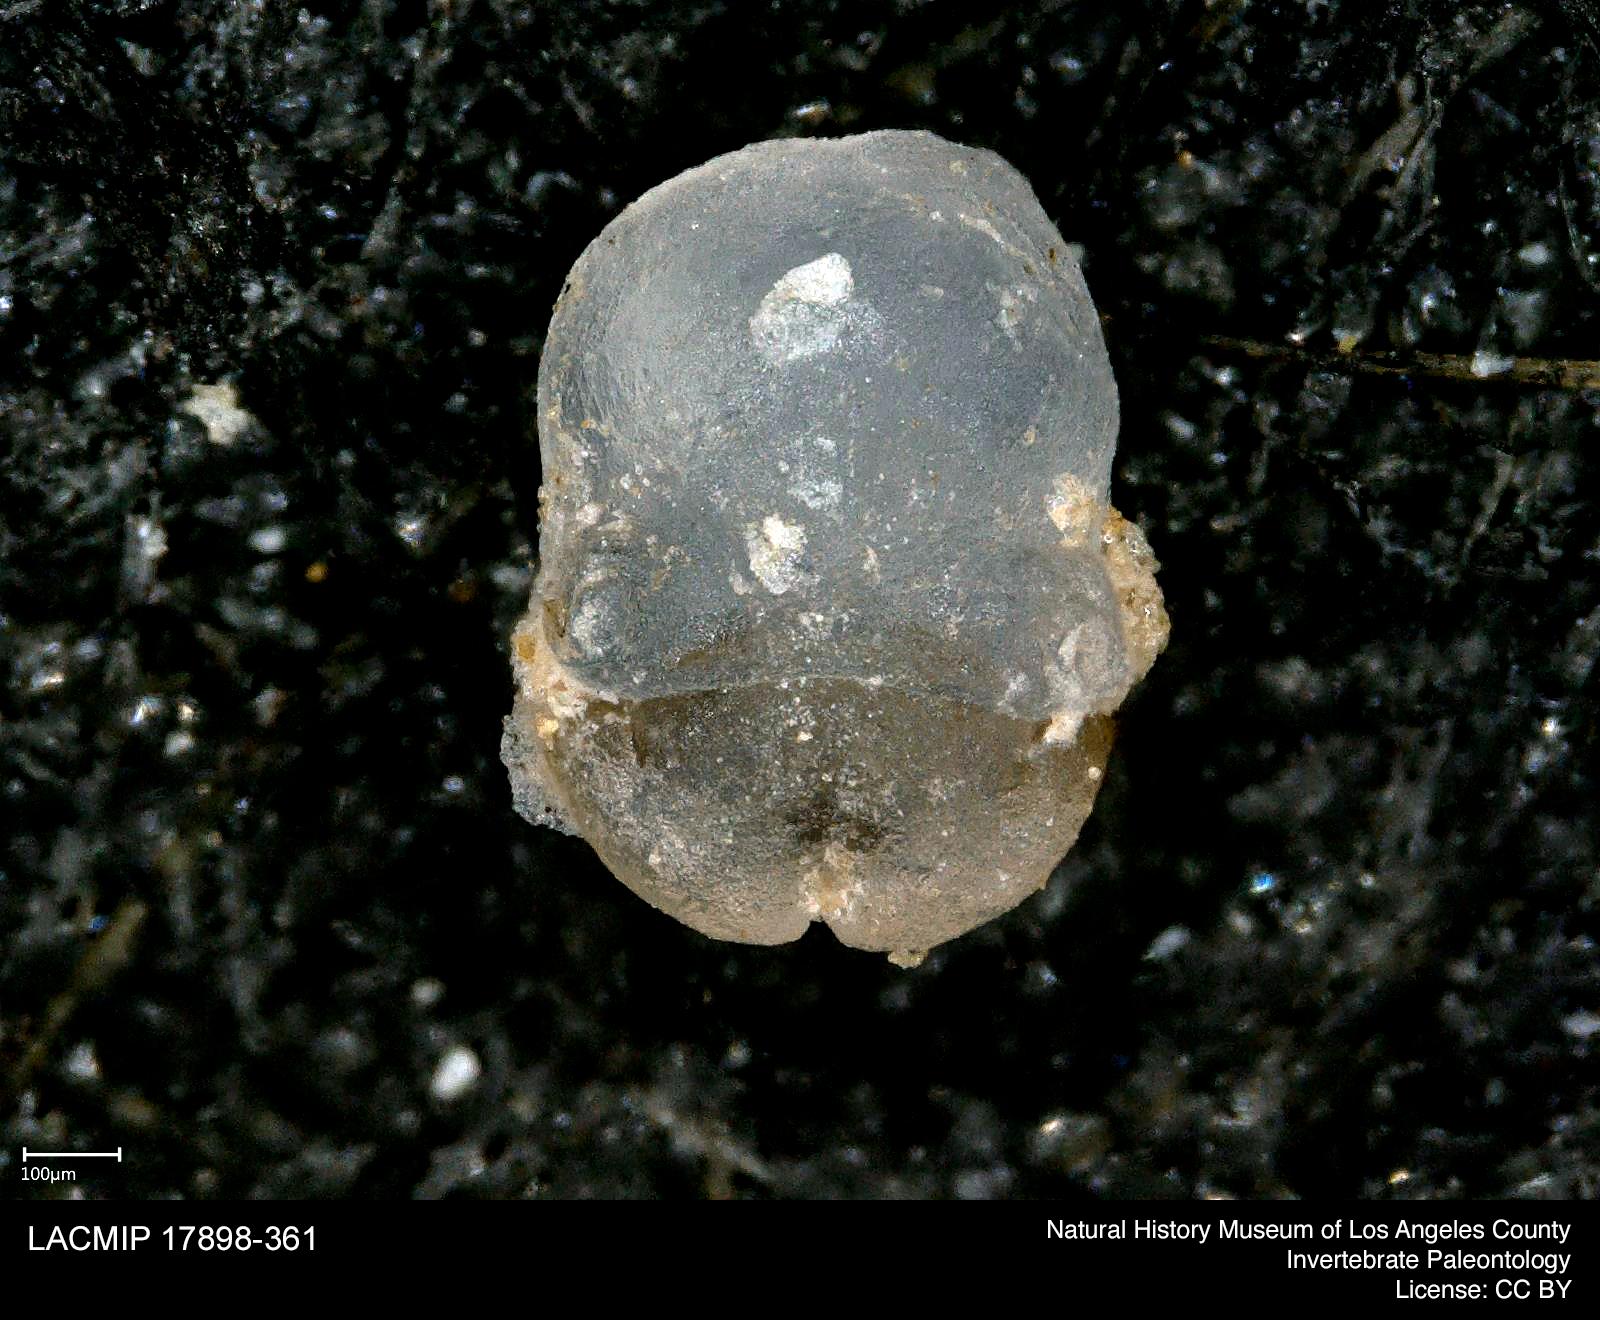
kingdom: Animalia
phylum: Arthropoda
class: Insecta
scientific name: Insecta
